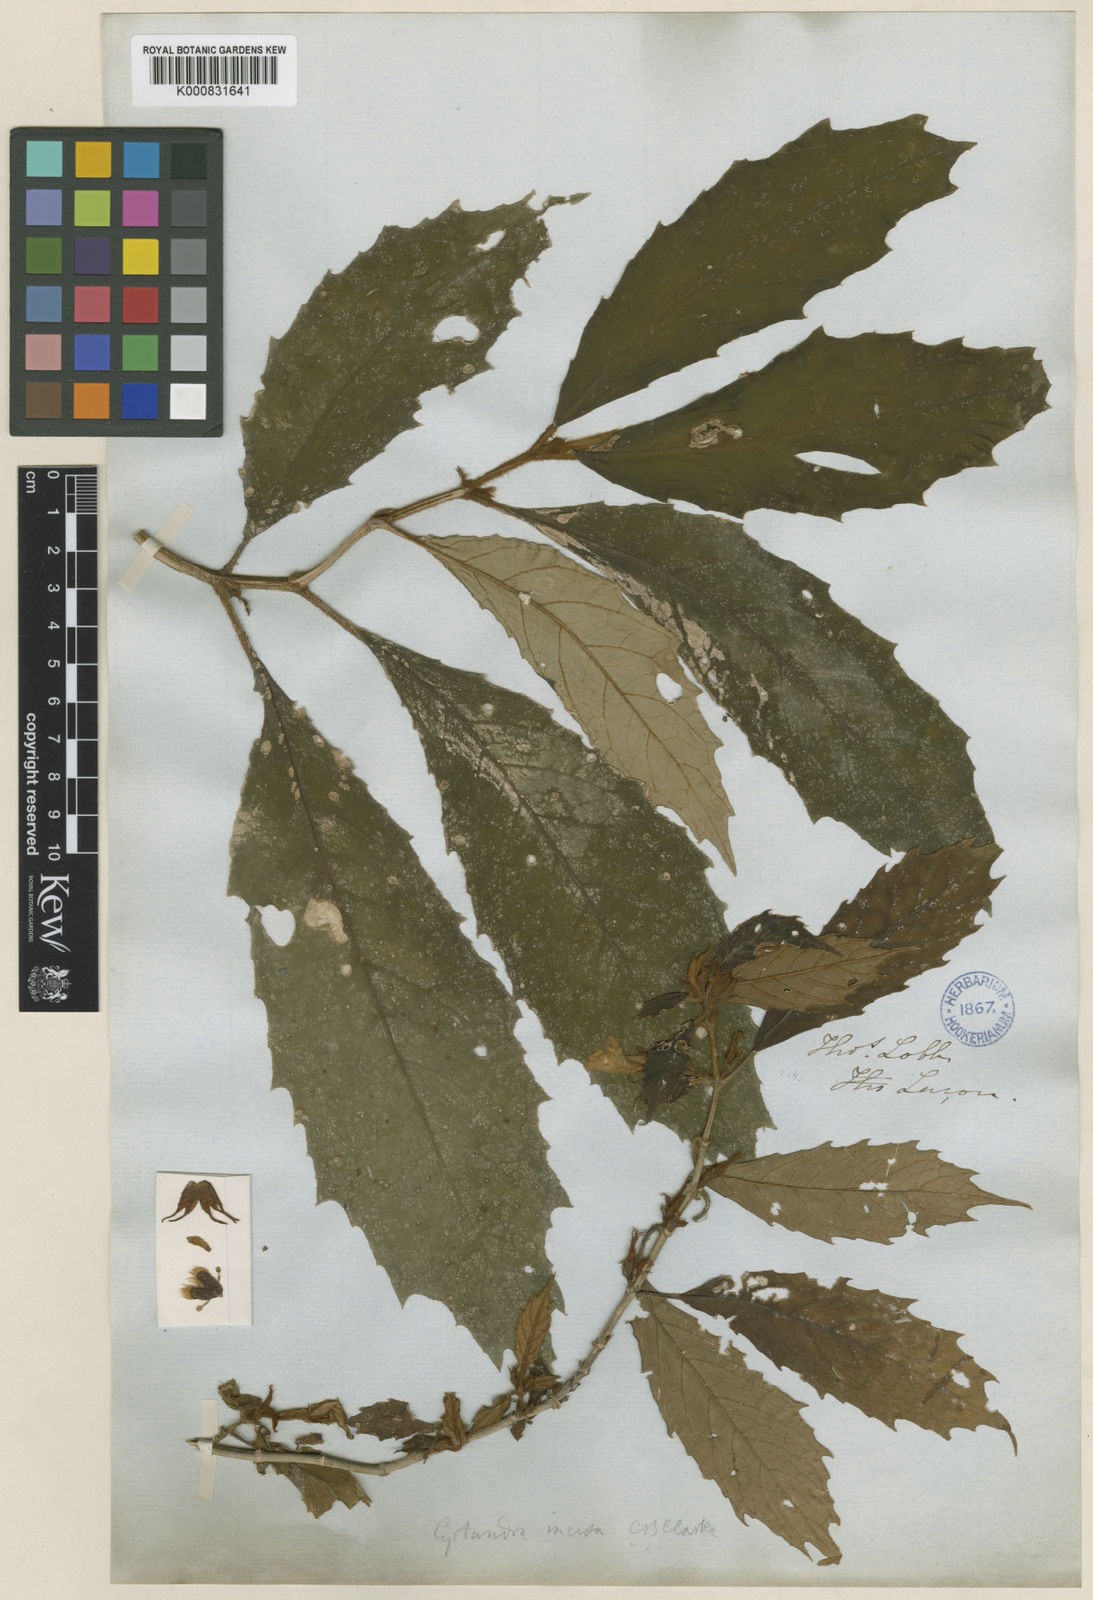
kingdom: Plantae
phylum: Tracheophyta
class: Magnoliopsida
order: Lamiales
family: Gesneriaceae
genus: Cyrtandra
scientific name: Cyrtandra incisa
